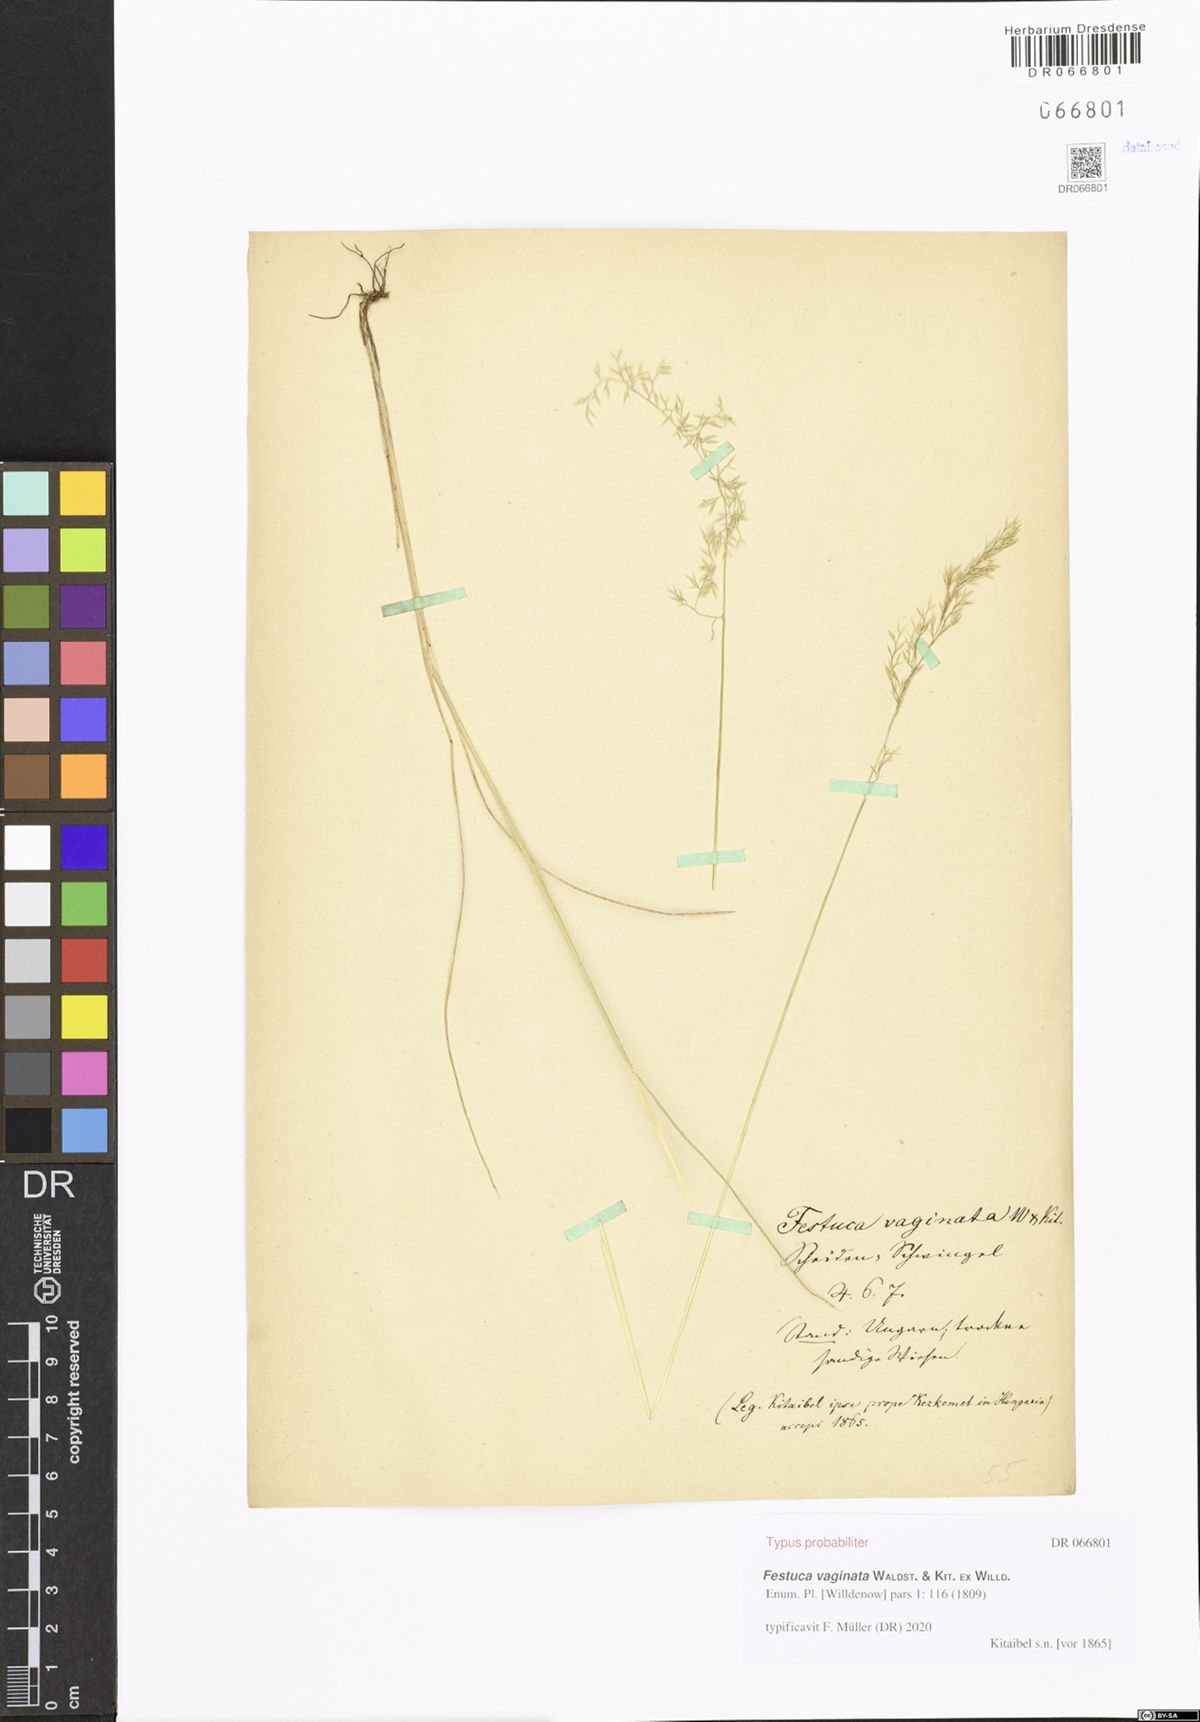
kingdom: Plantae
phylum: Tracheophyta
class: Liliopsida
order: Poales
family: Poaceae
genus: Festuca
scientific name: Festuca vaginata
